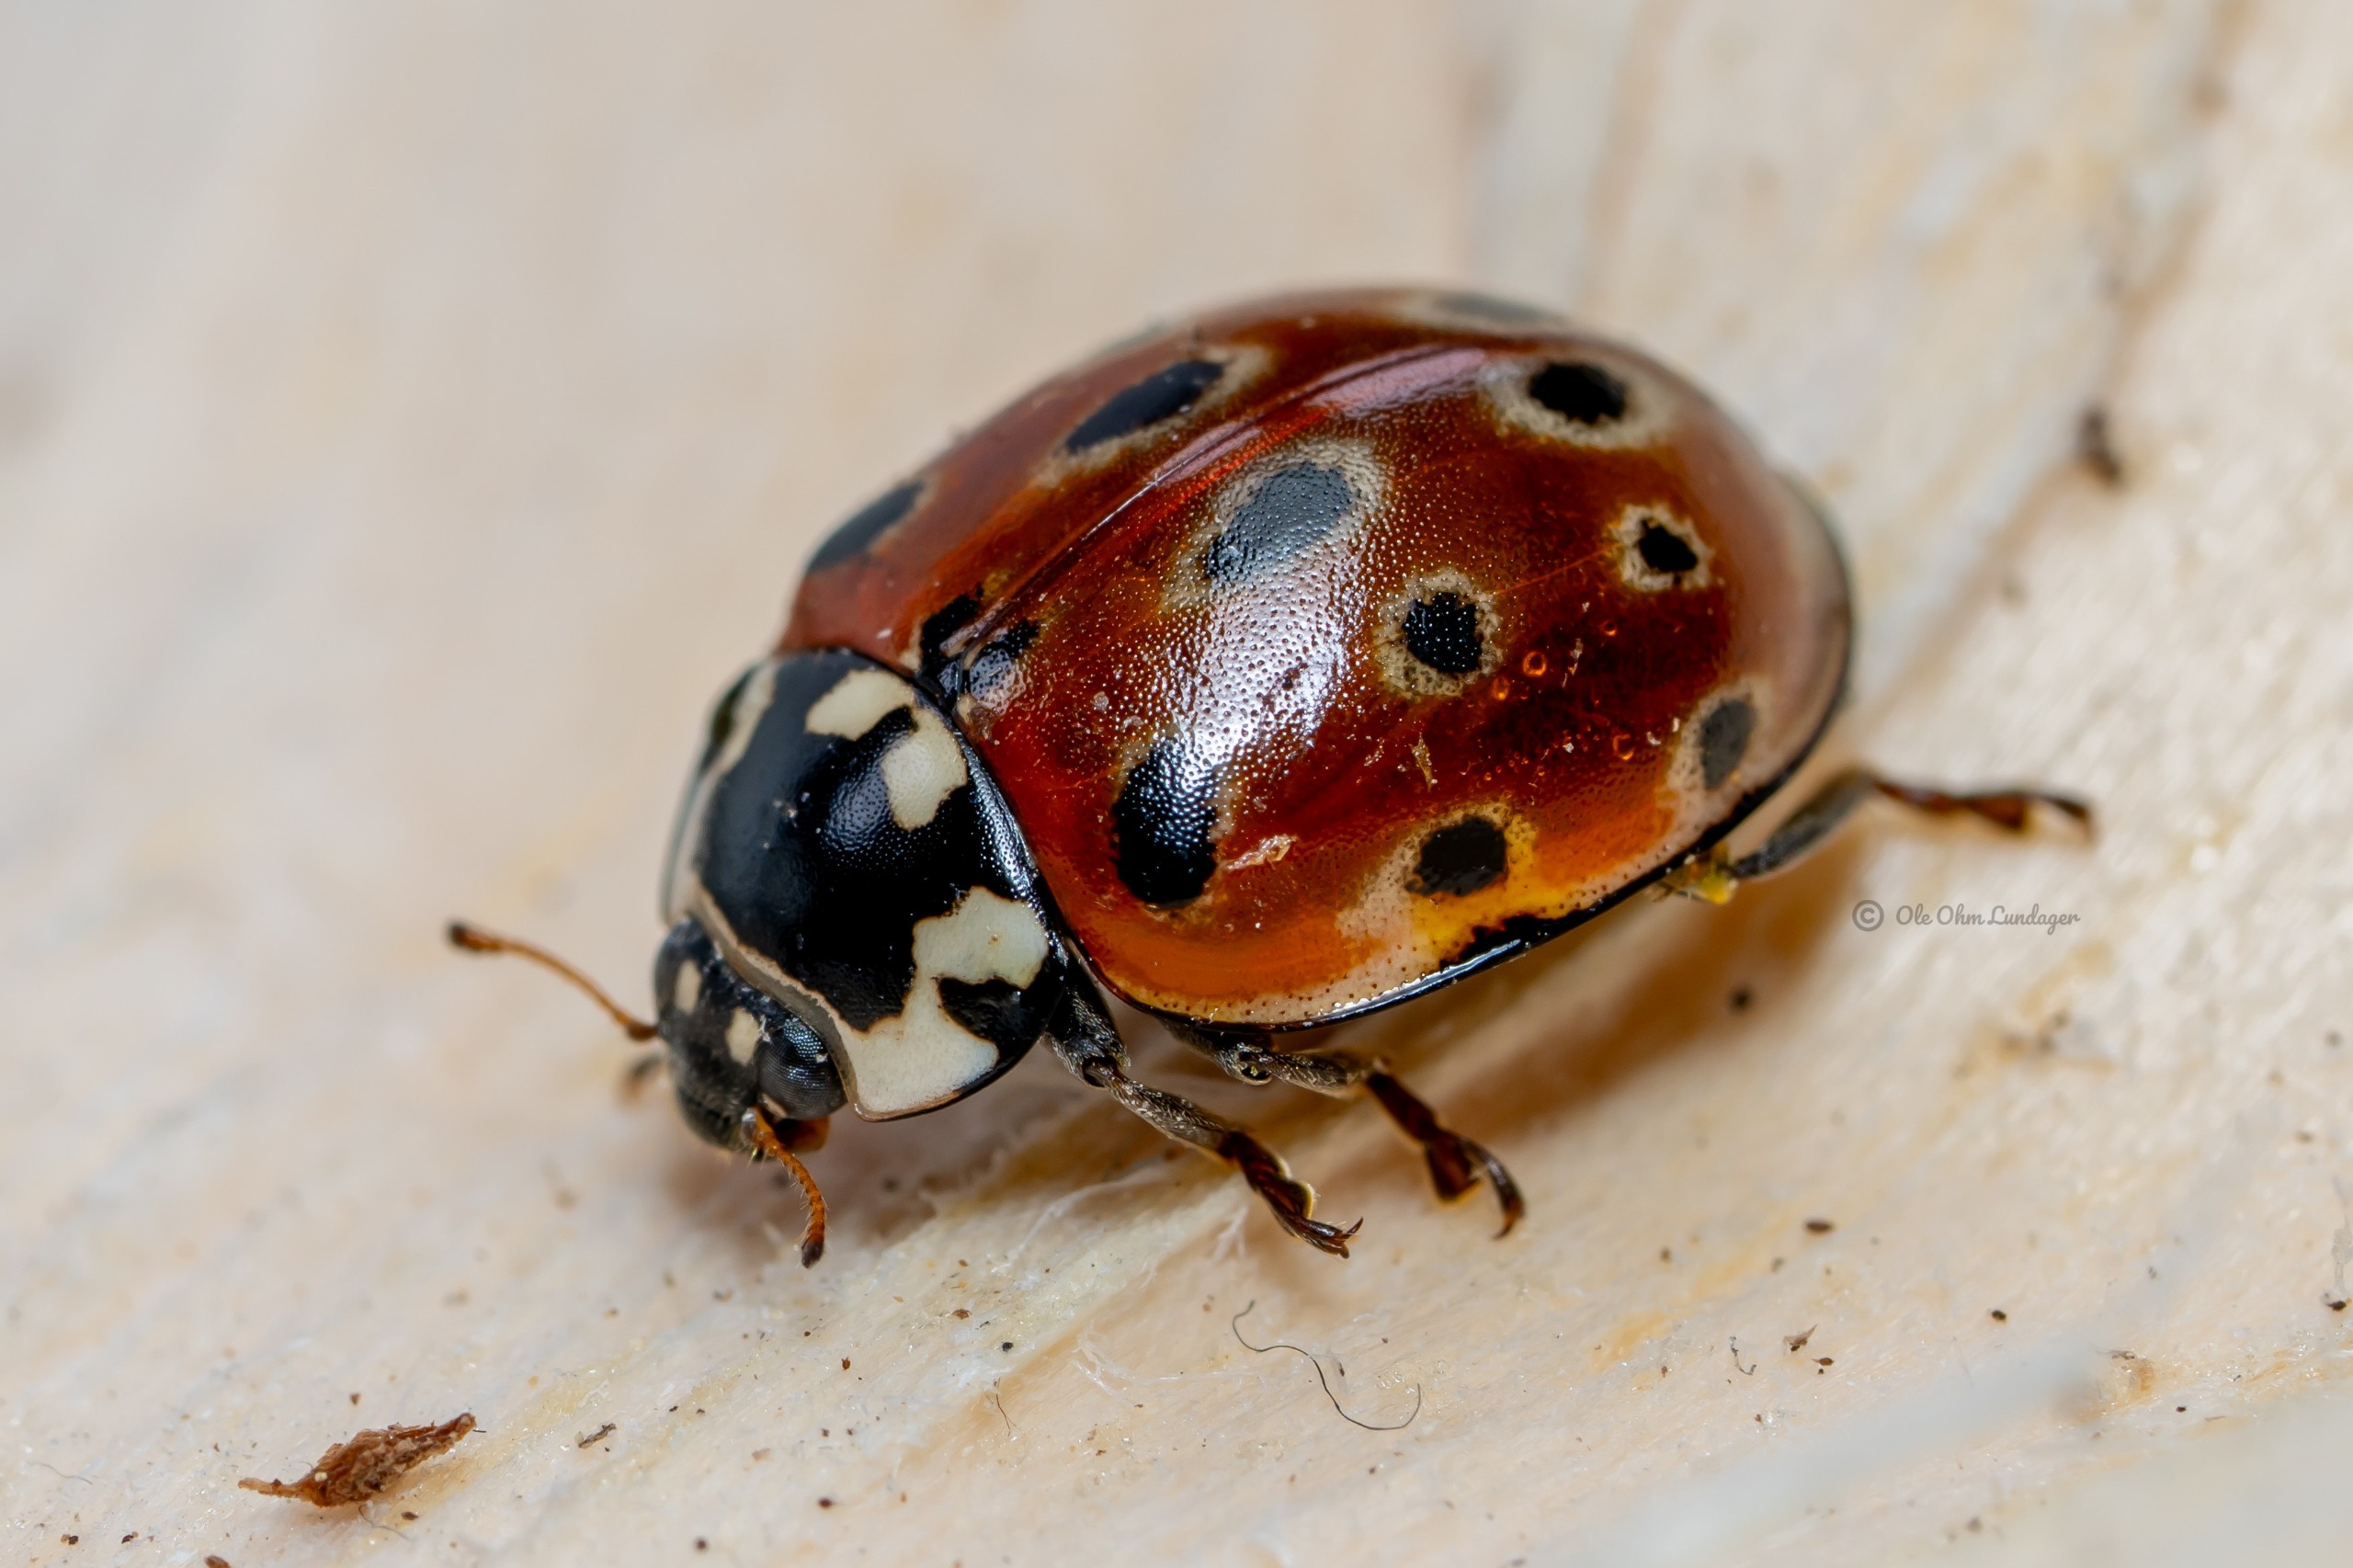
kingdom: Animalia
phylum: Arthropoda
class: Insecta
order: Coleoptera
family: Coccinellidae
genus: Anatis
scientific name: Anatis ocellata
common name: Øjeplettet mariehøne
